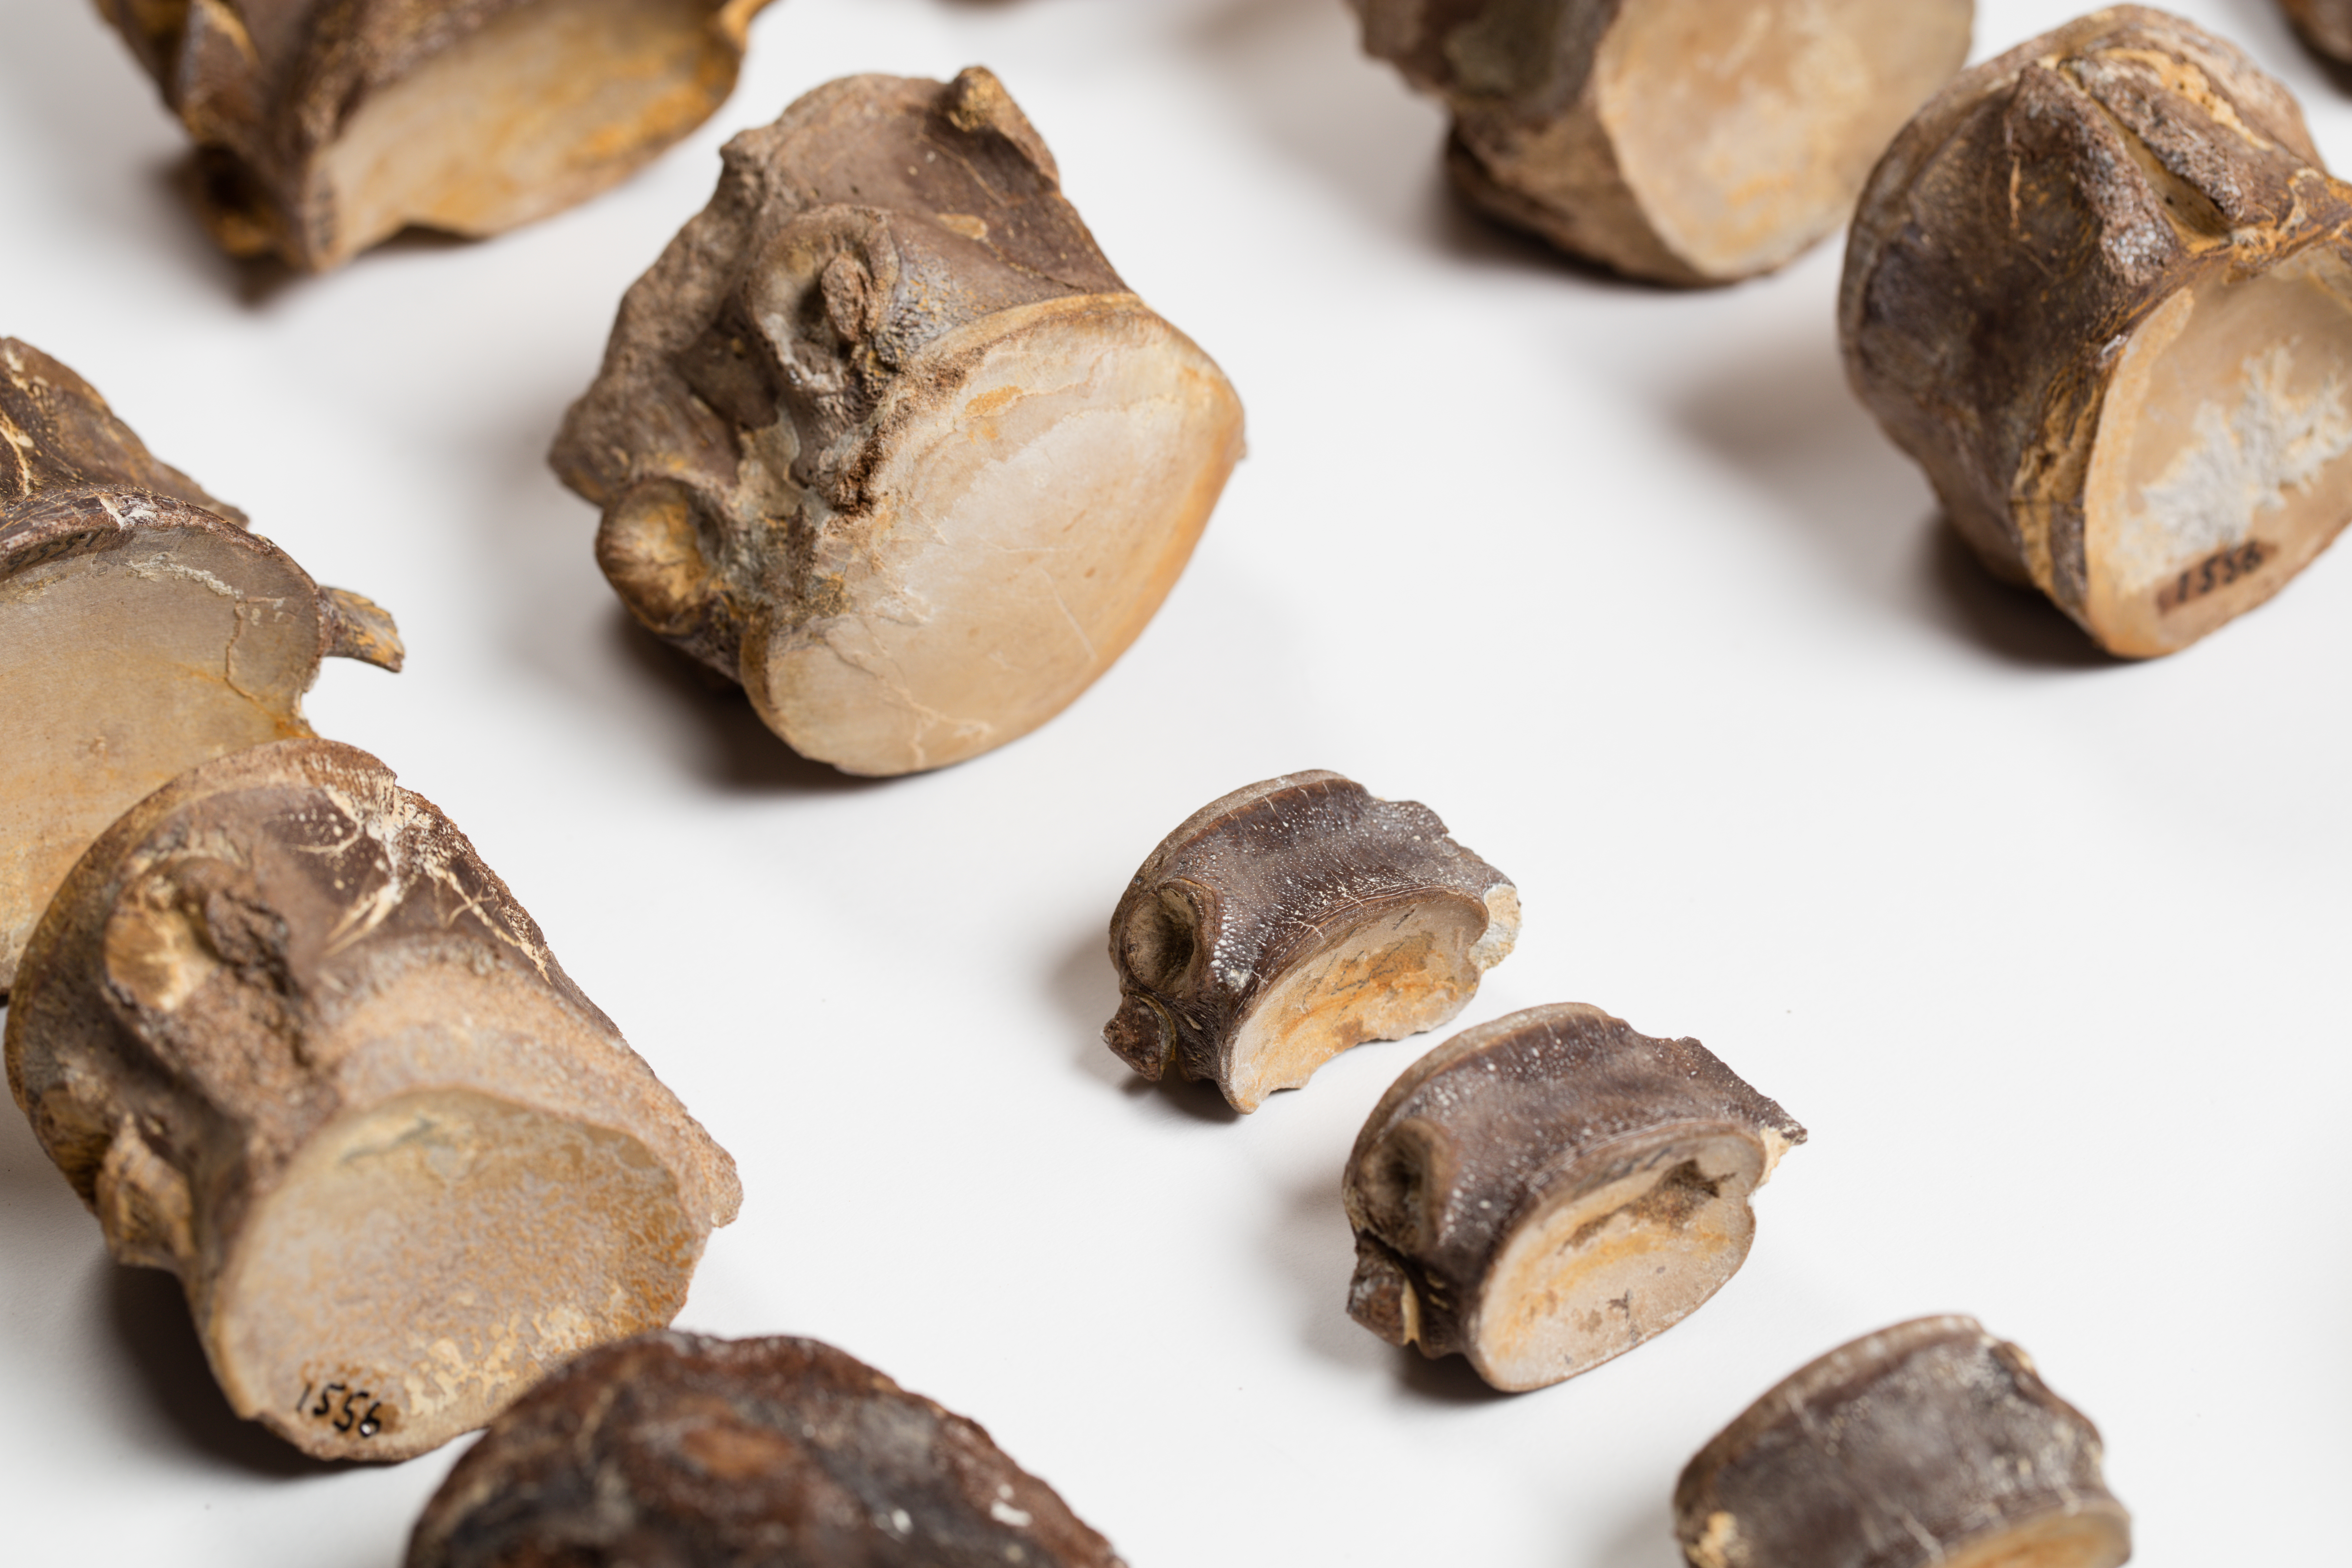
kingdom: Animalia
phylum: Chordata
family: Mosasauridae
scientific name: Mosasauridae
